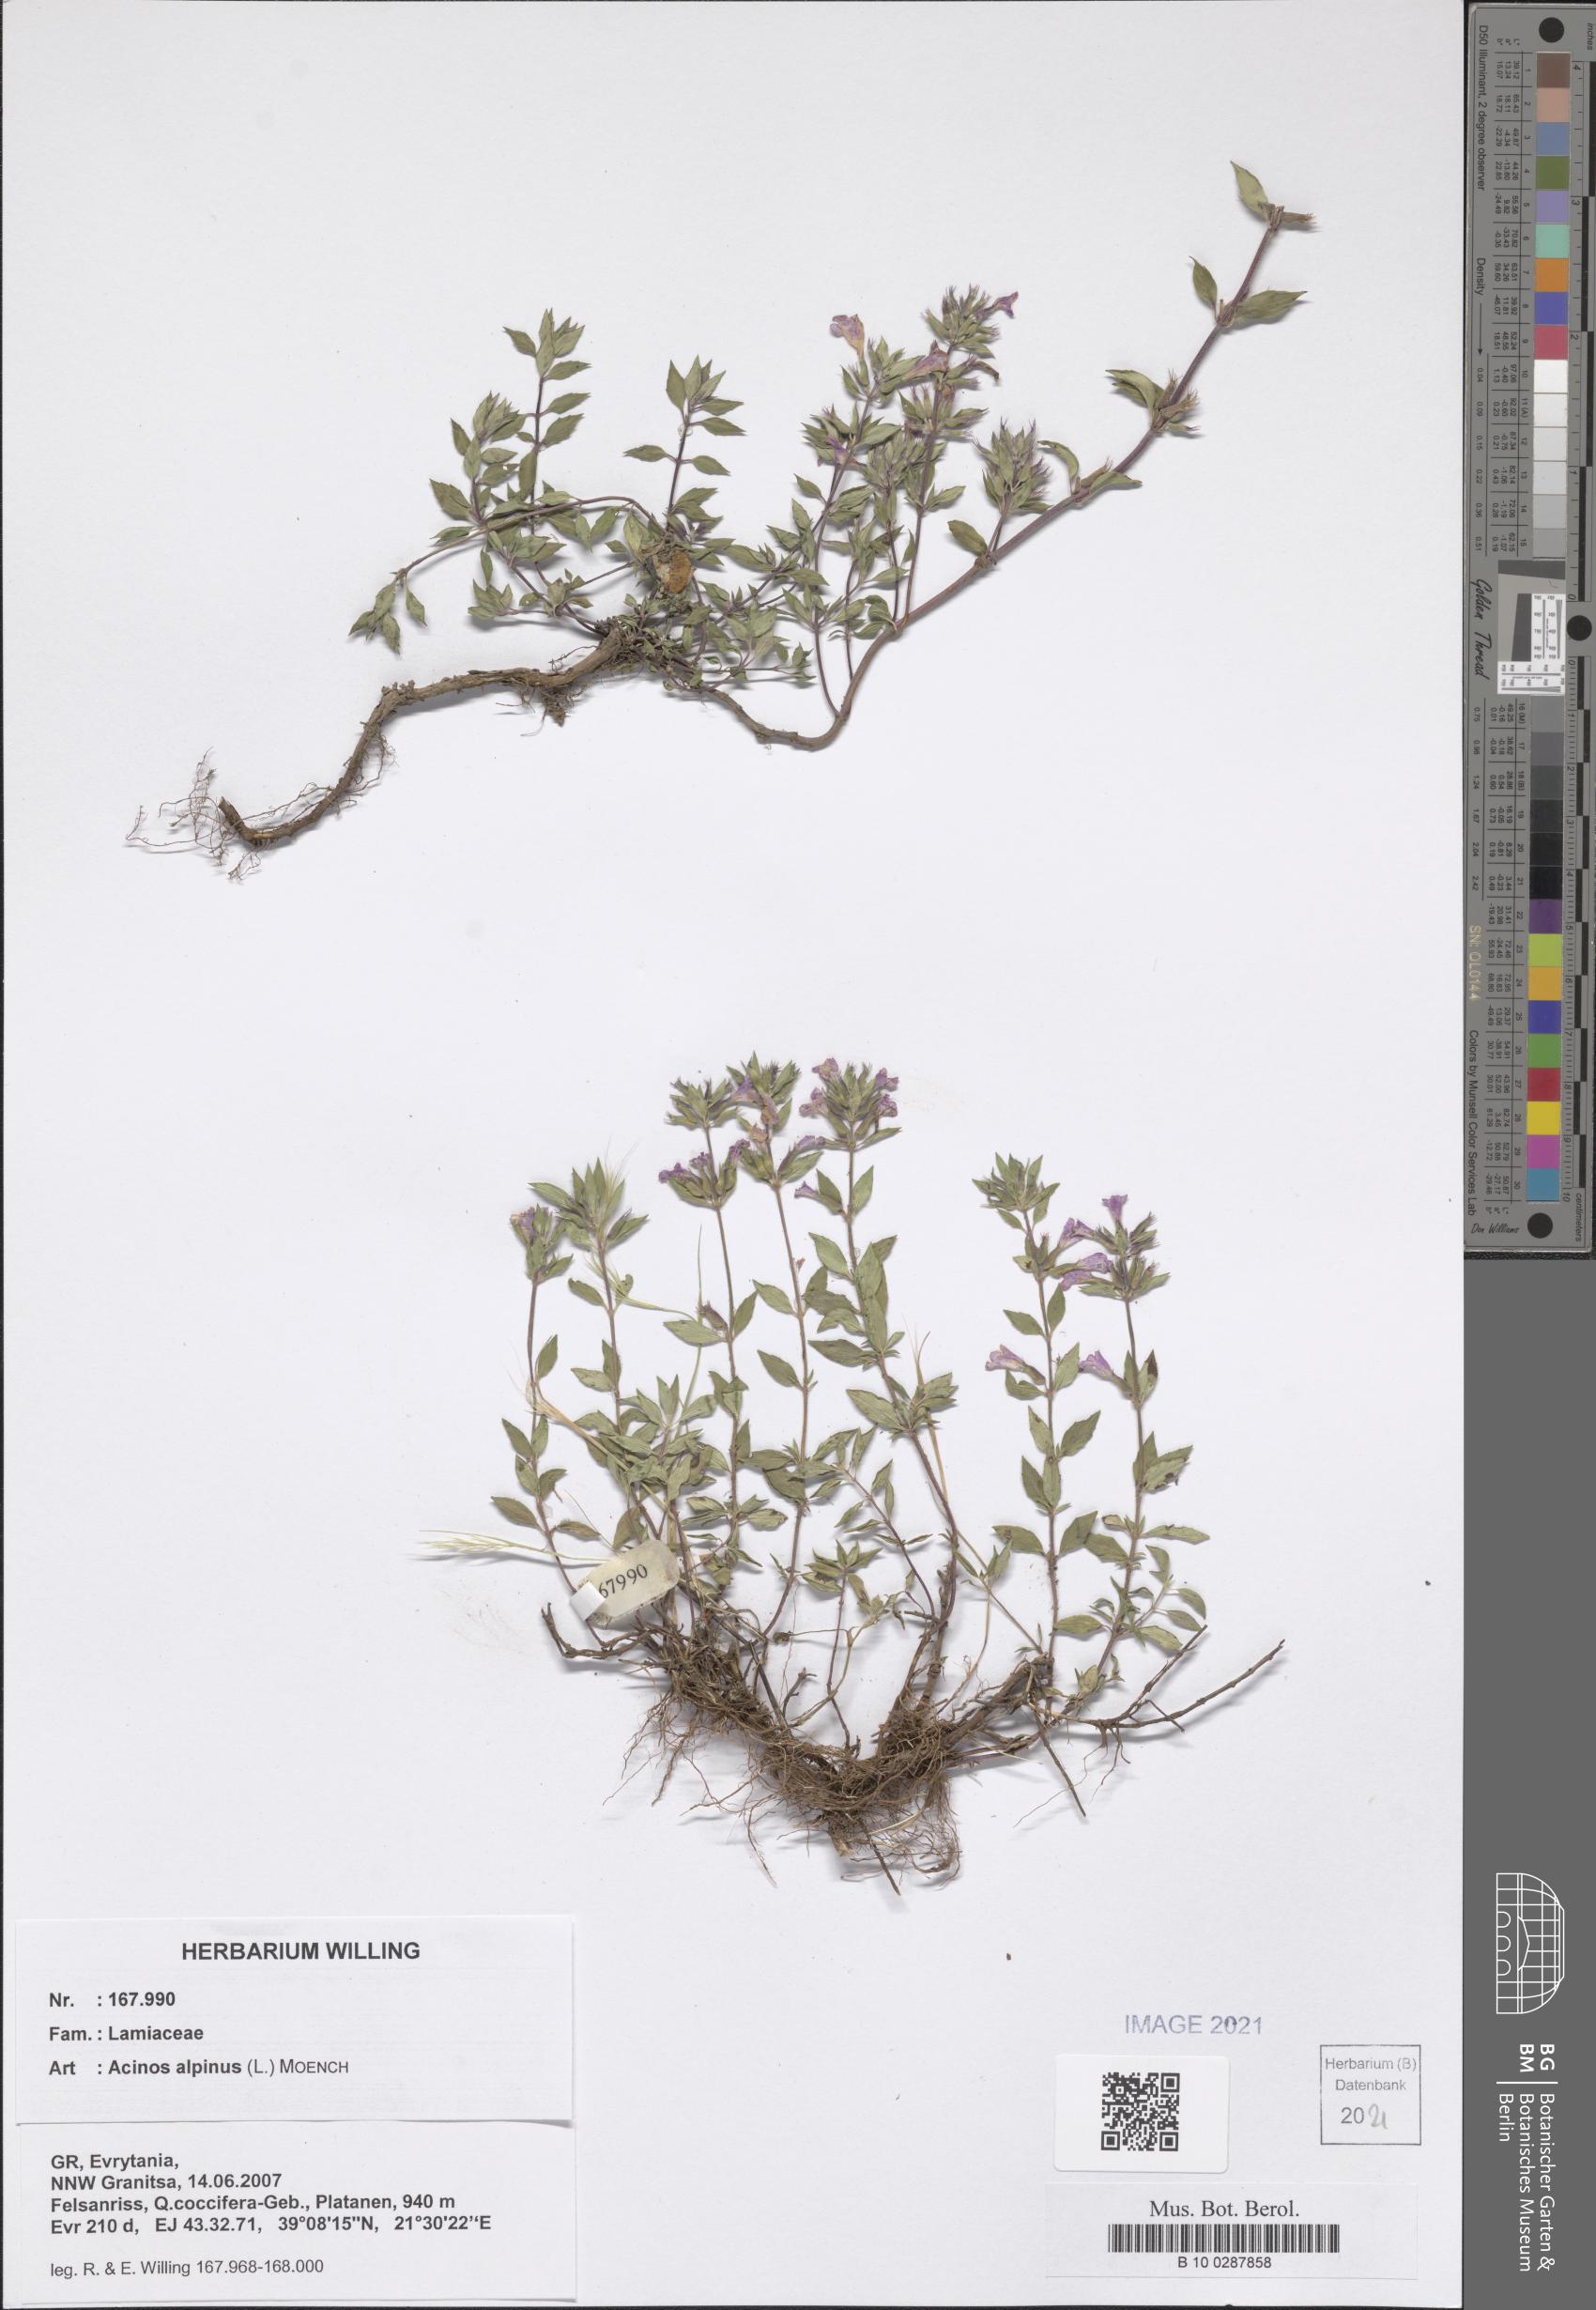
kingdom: Plantae
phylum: Tracheophyta
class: Magnoliopsida
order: Lamiales
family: Lamiaceae
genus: Clinopodium
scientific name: Clinopodium alpinum
